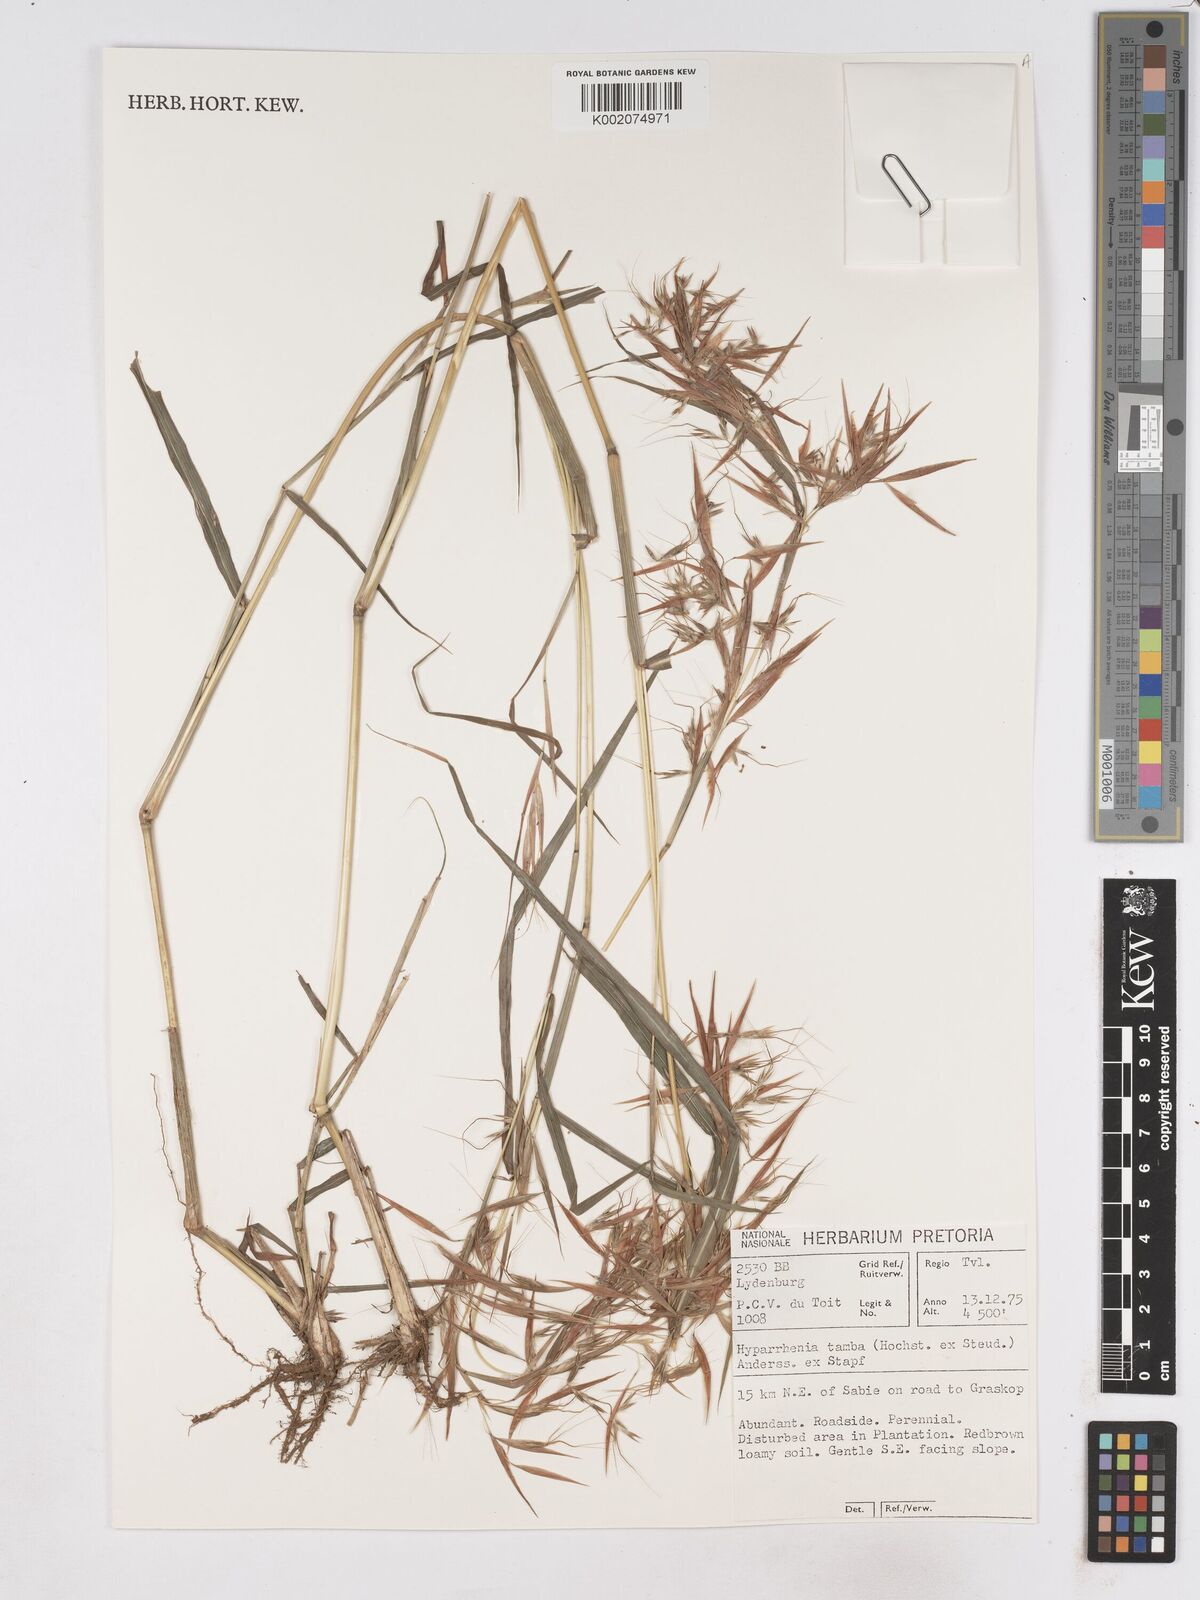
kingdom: Plantae
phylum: Tracheophyta
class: Liliopsida
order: Poales
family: Poaceae
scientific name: Poaceae
